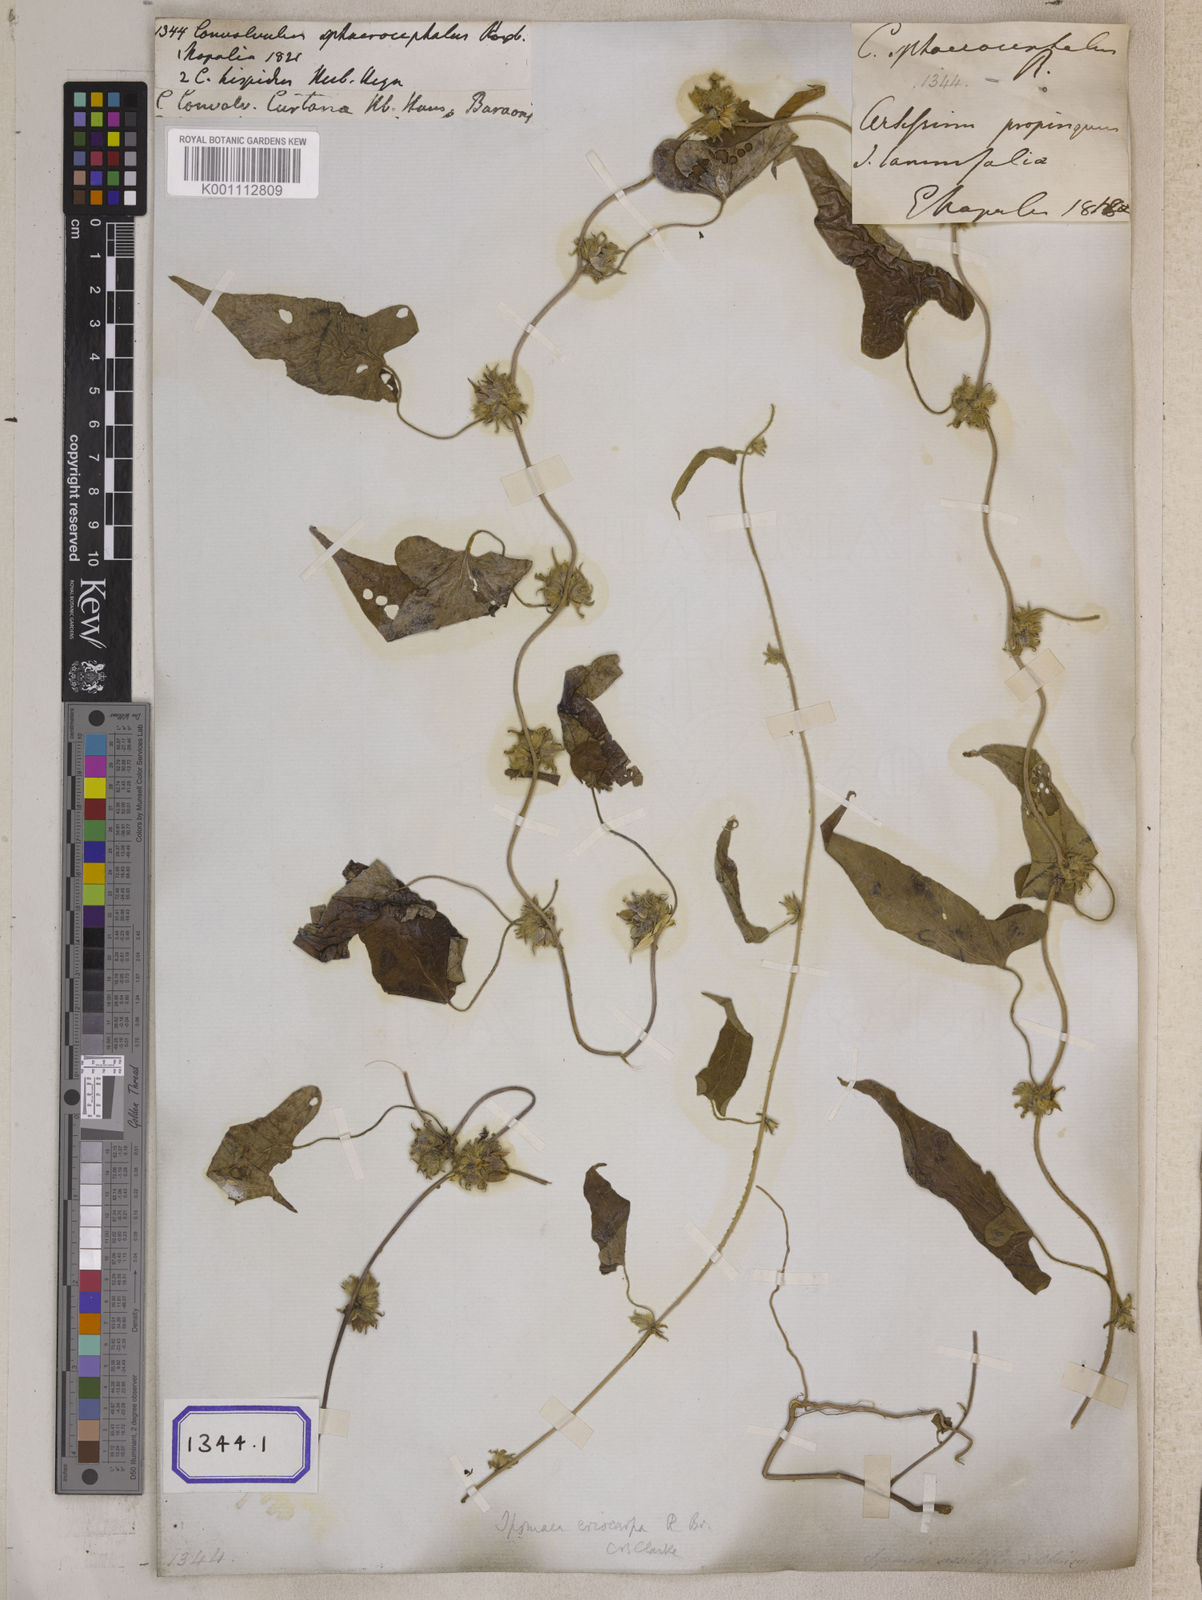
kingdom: Plantae
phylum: Tracheophyta
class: Magnoliopsida
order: Solanales
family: Convolvulaceae
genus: Argyreia
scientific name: Argyreia atropurpurea
